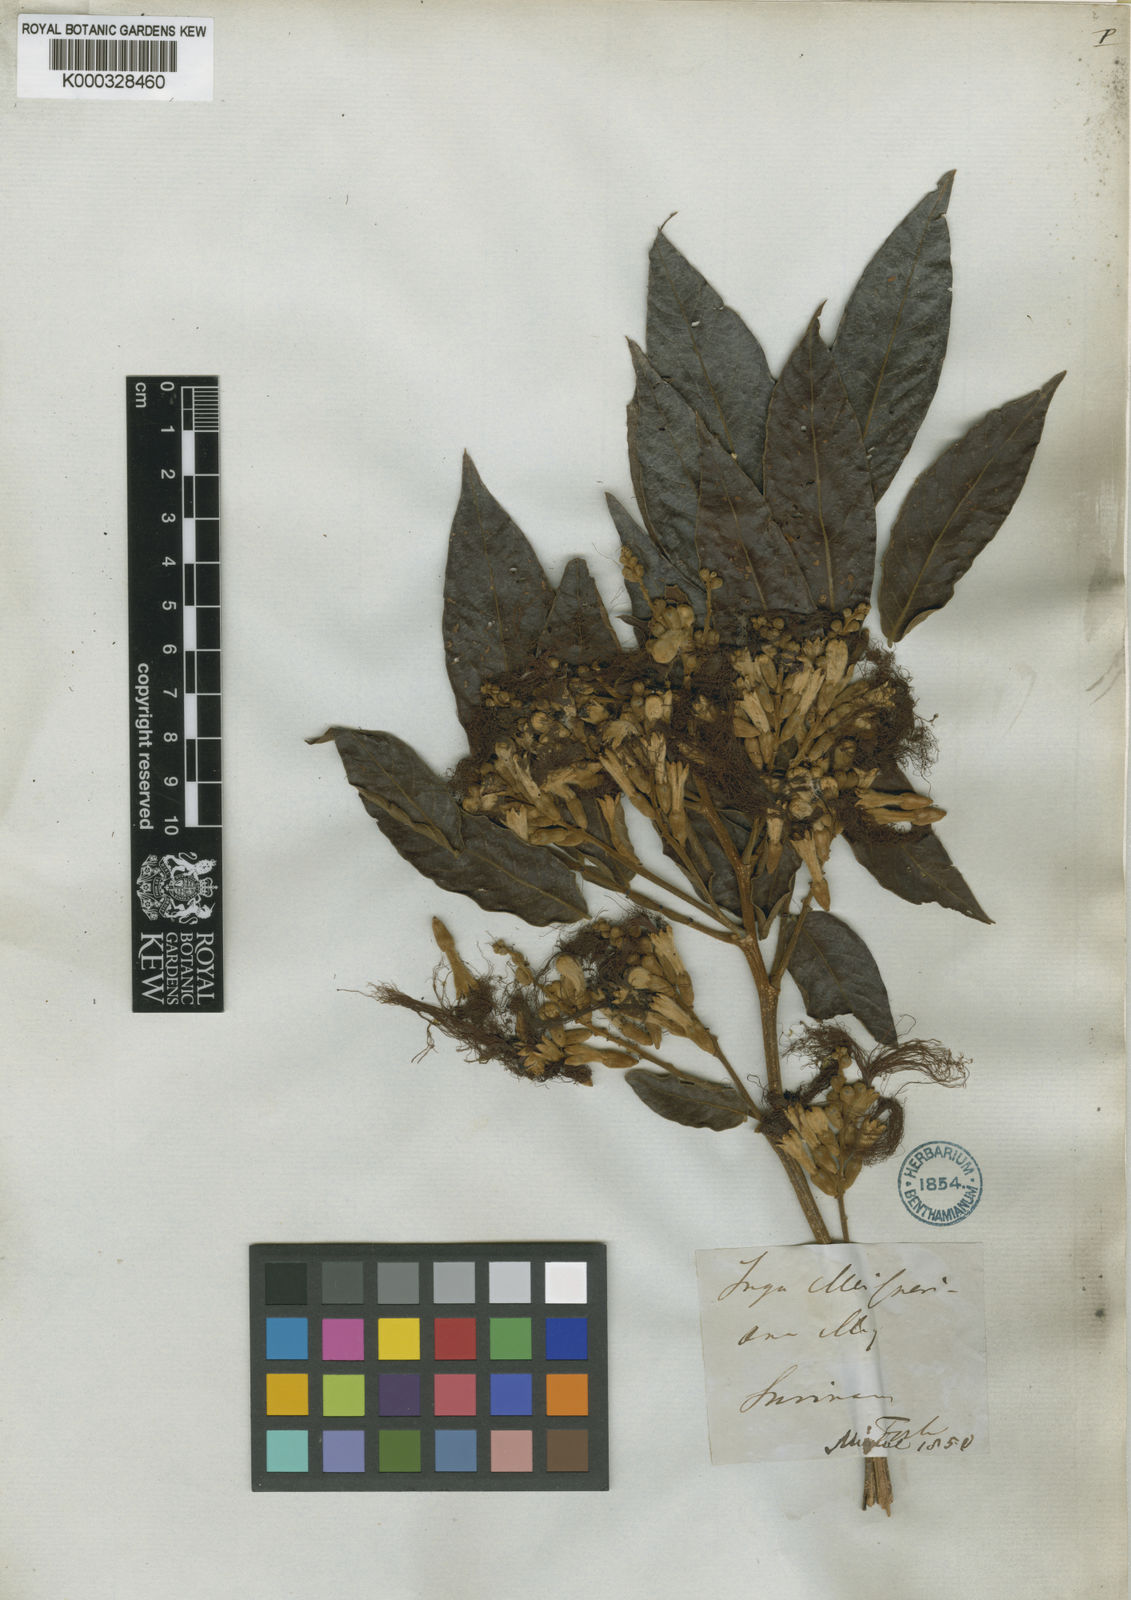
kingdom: Plantae
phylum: Tracheophyta
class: Magnoliopsida
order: Fabales
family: Fabaceae
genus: Inga
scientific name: Inga affinis
